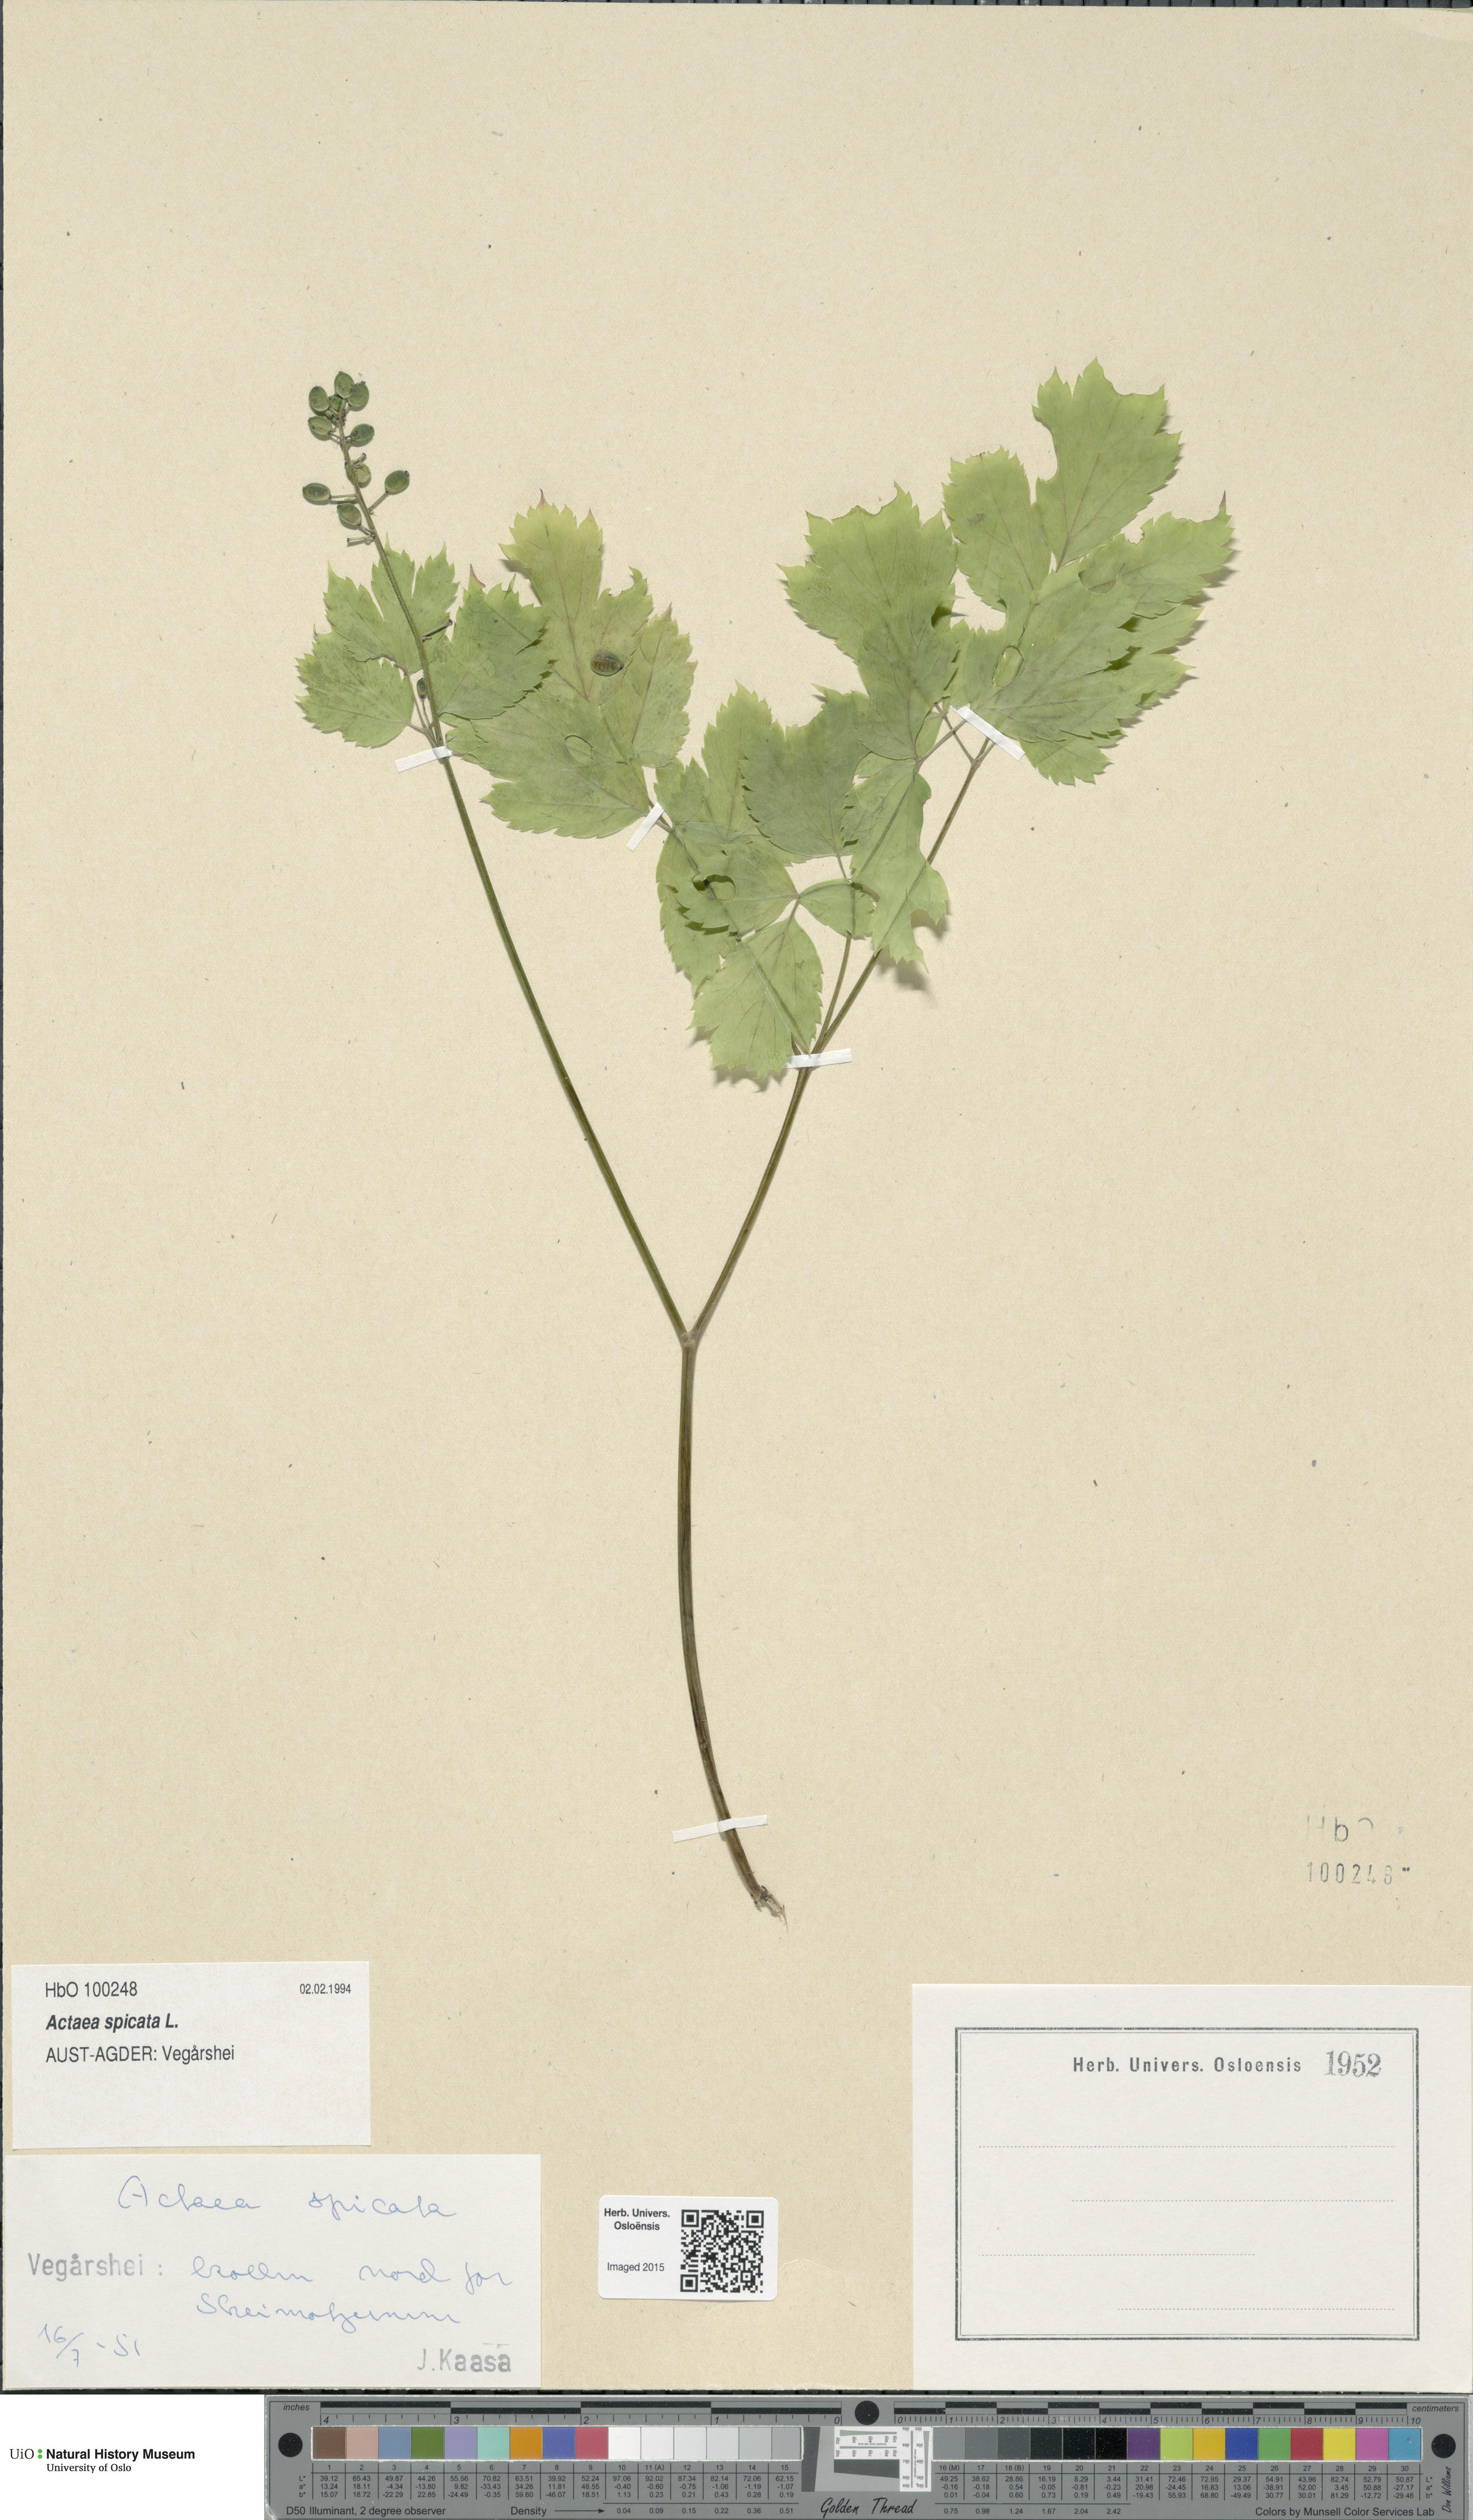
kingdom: Plantae
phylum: Tracheophyta
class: Magnoliopsida
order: Ranunculales
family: Ranunculaceae
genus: Actaea
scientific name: Actaea spicata
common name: Baneberry
